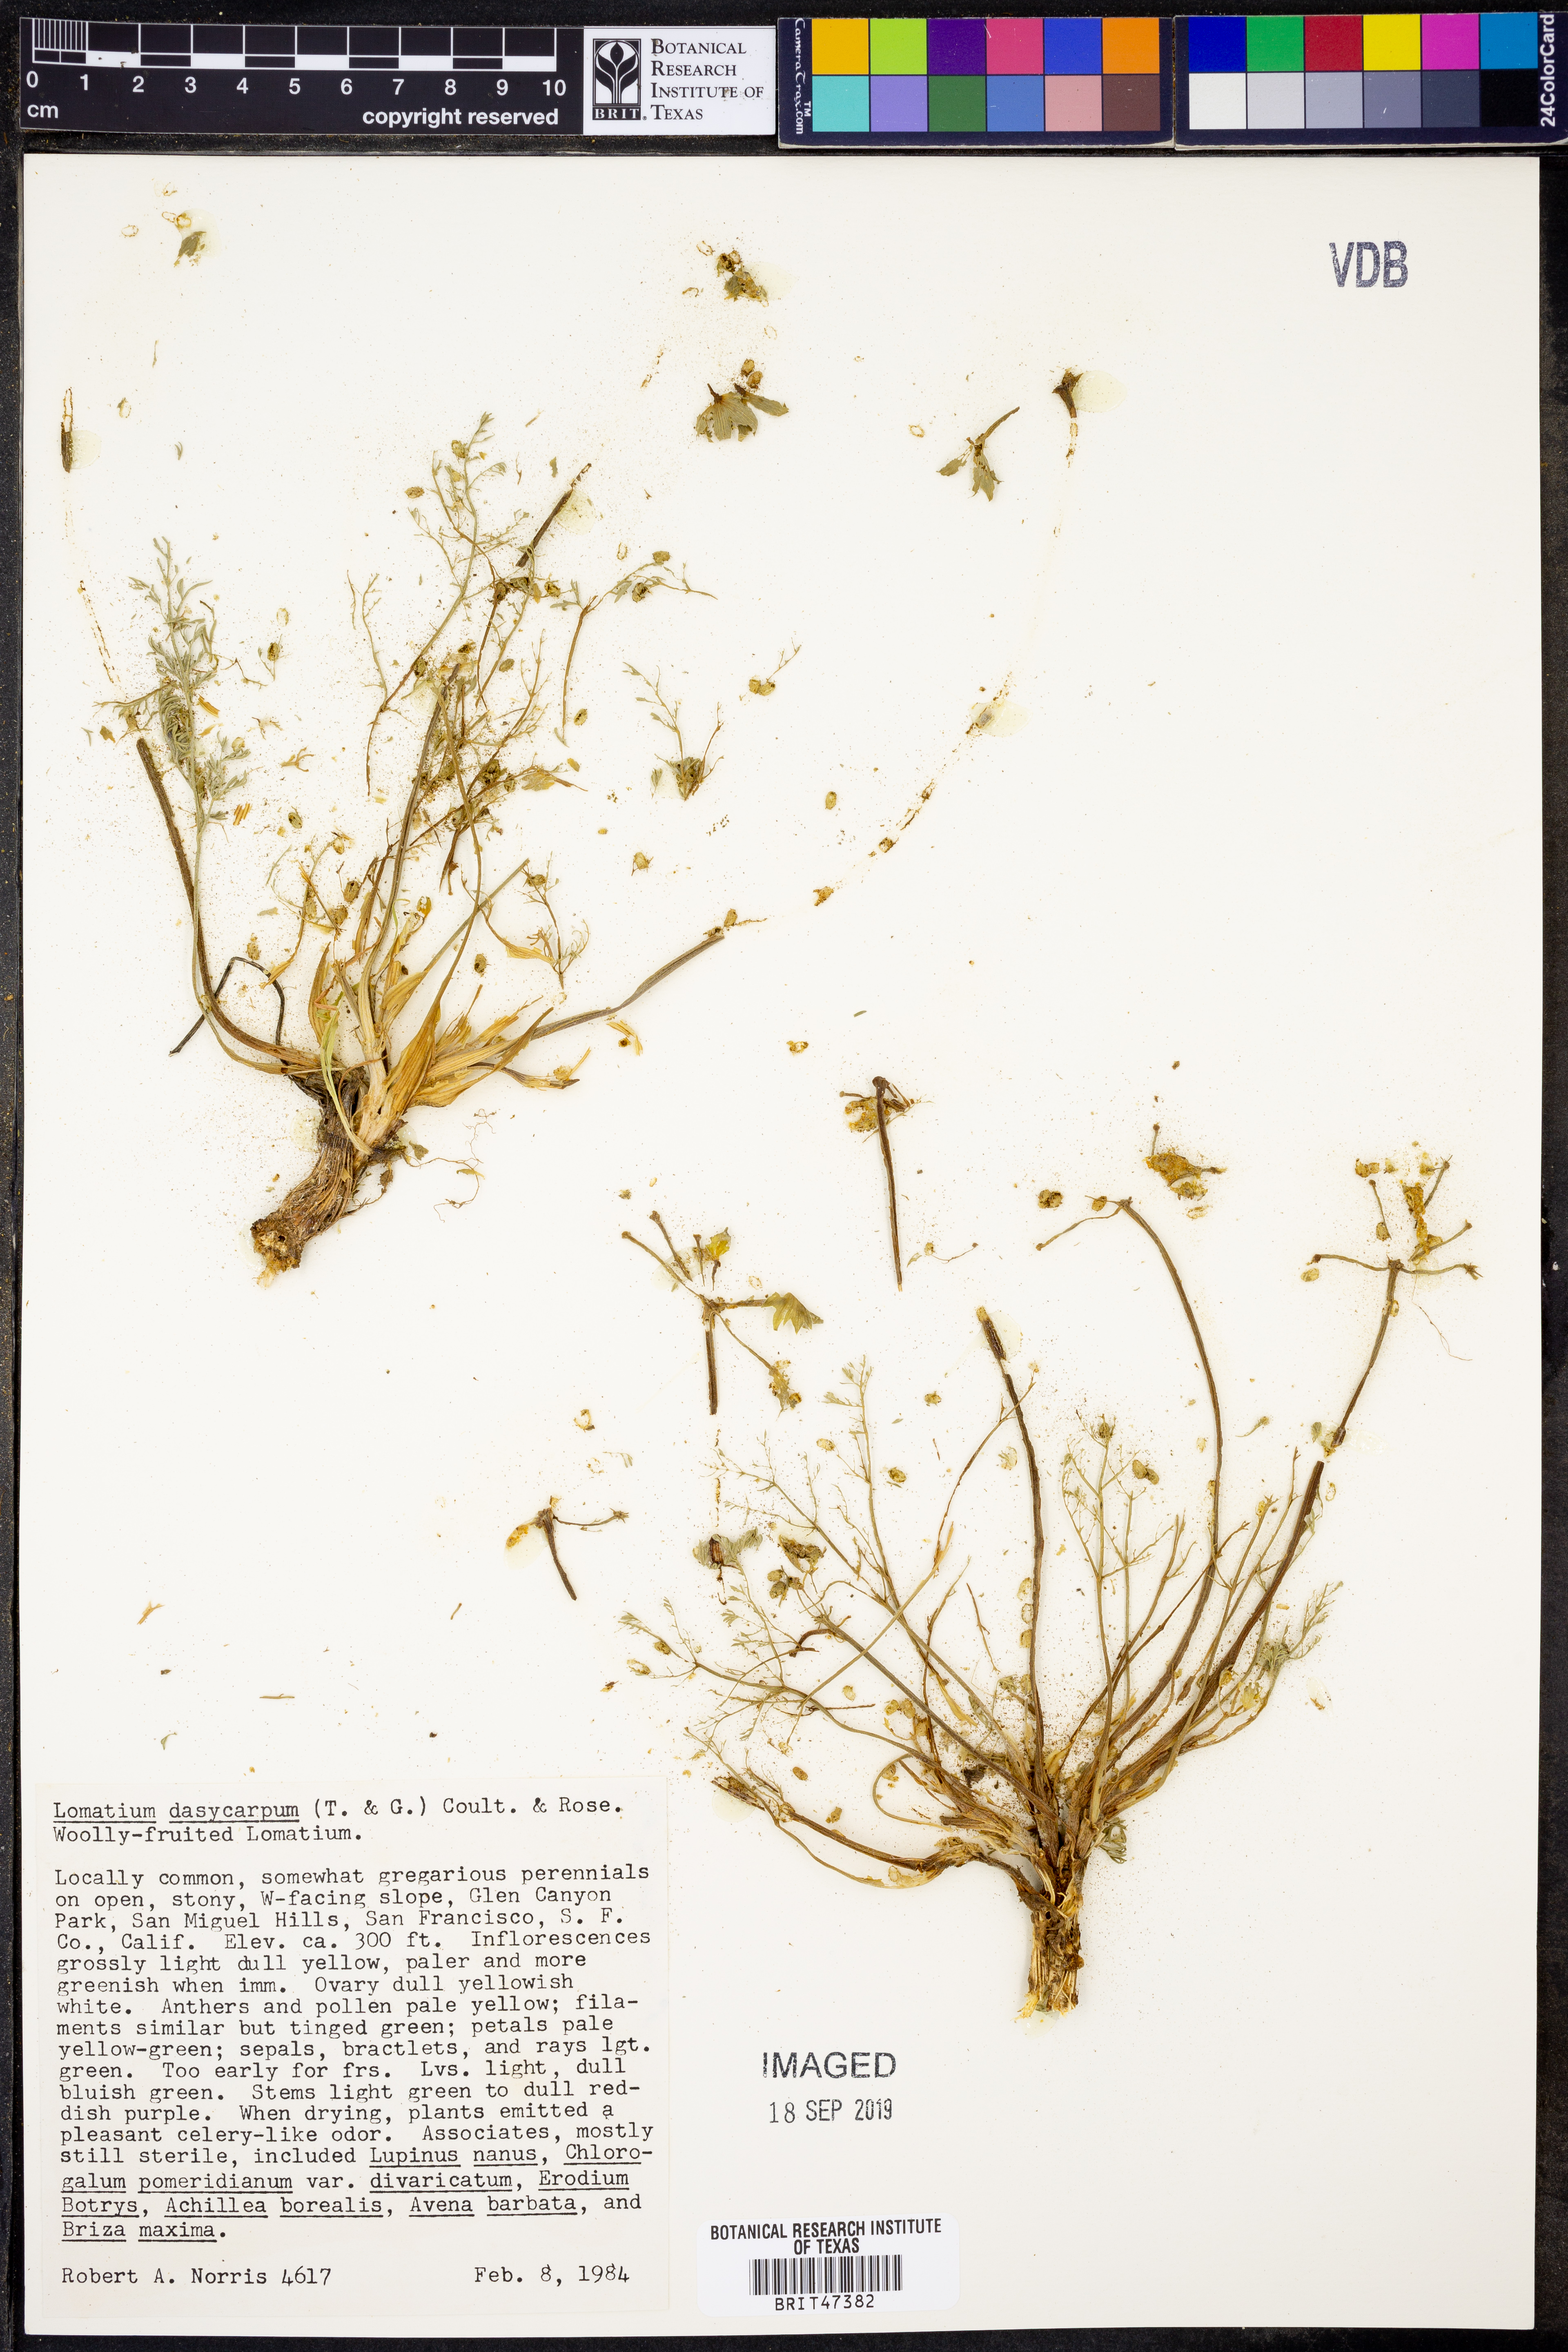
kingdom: Plantae
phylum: Tracheophyta
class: Magnoliopsida
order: Apiales
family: Apiaceae
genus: Lomatium
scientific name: Lomatium dasycarpum
